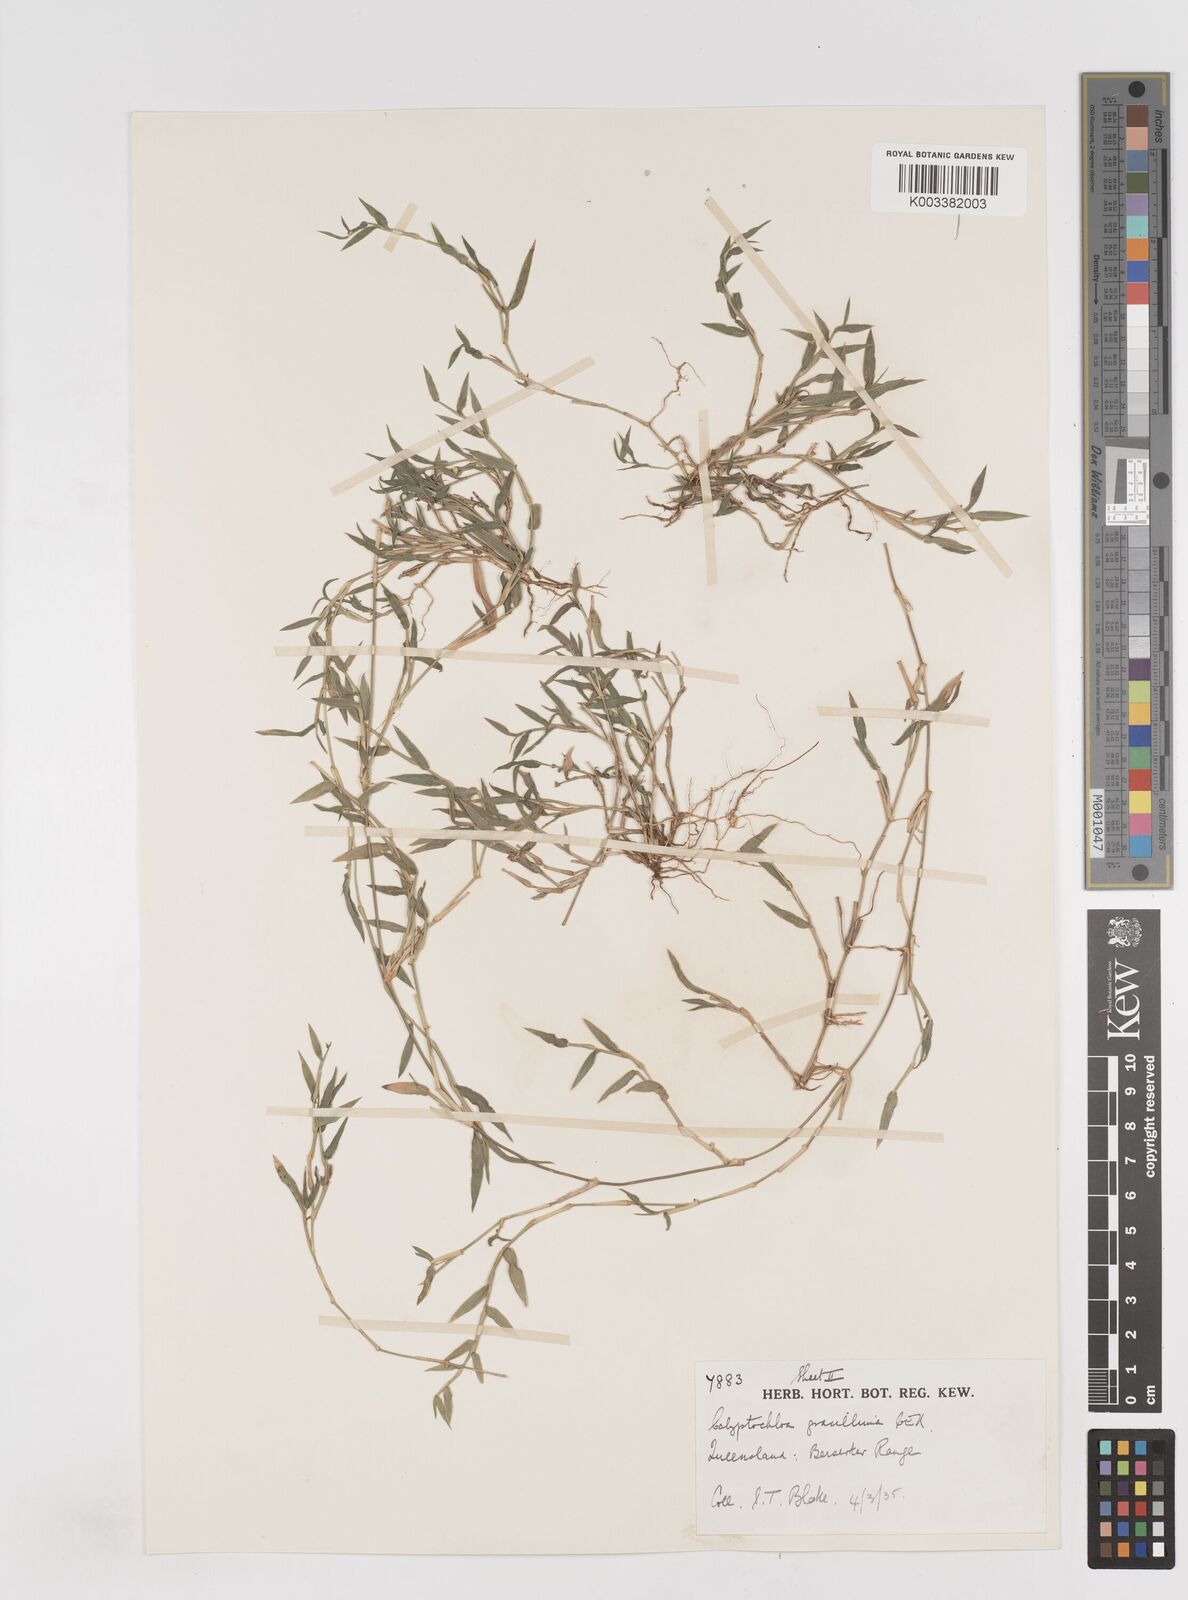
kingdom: Plantae
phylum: Tracheophyta
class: Liliopsida
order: Poales
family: Poaceae
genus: Calyptochloa
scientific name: Calyptochloa gracillima
